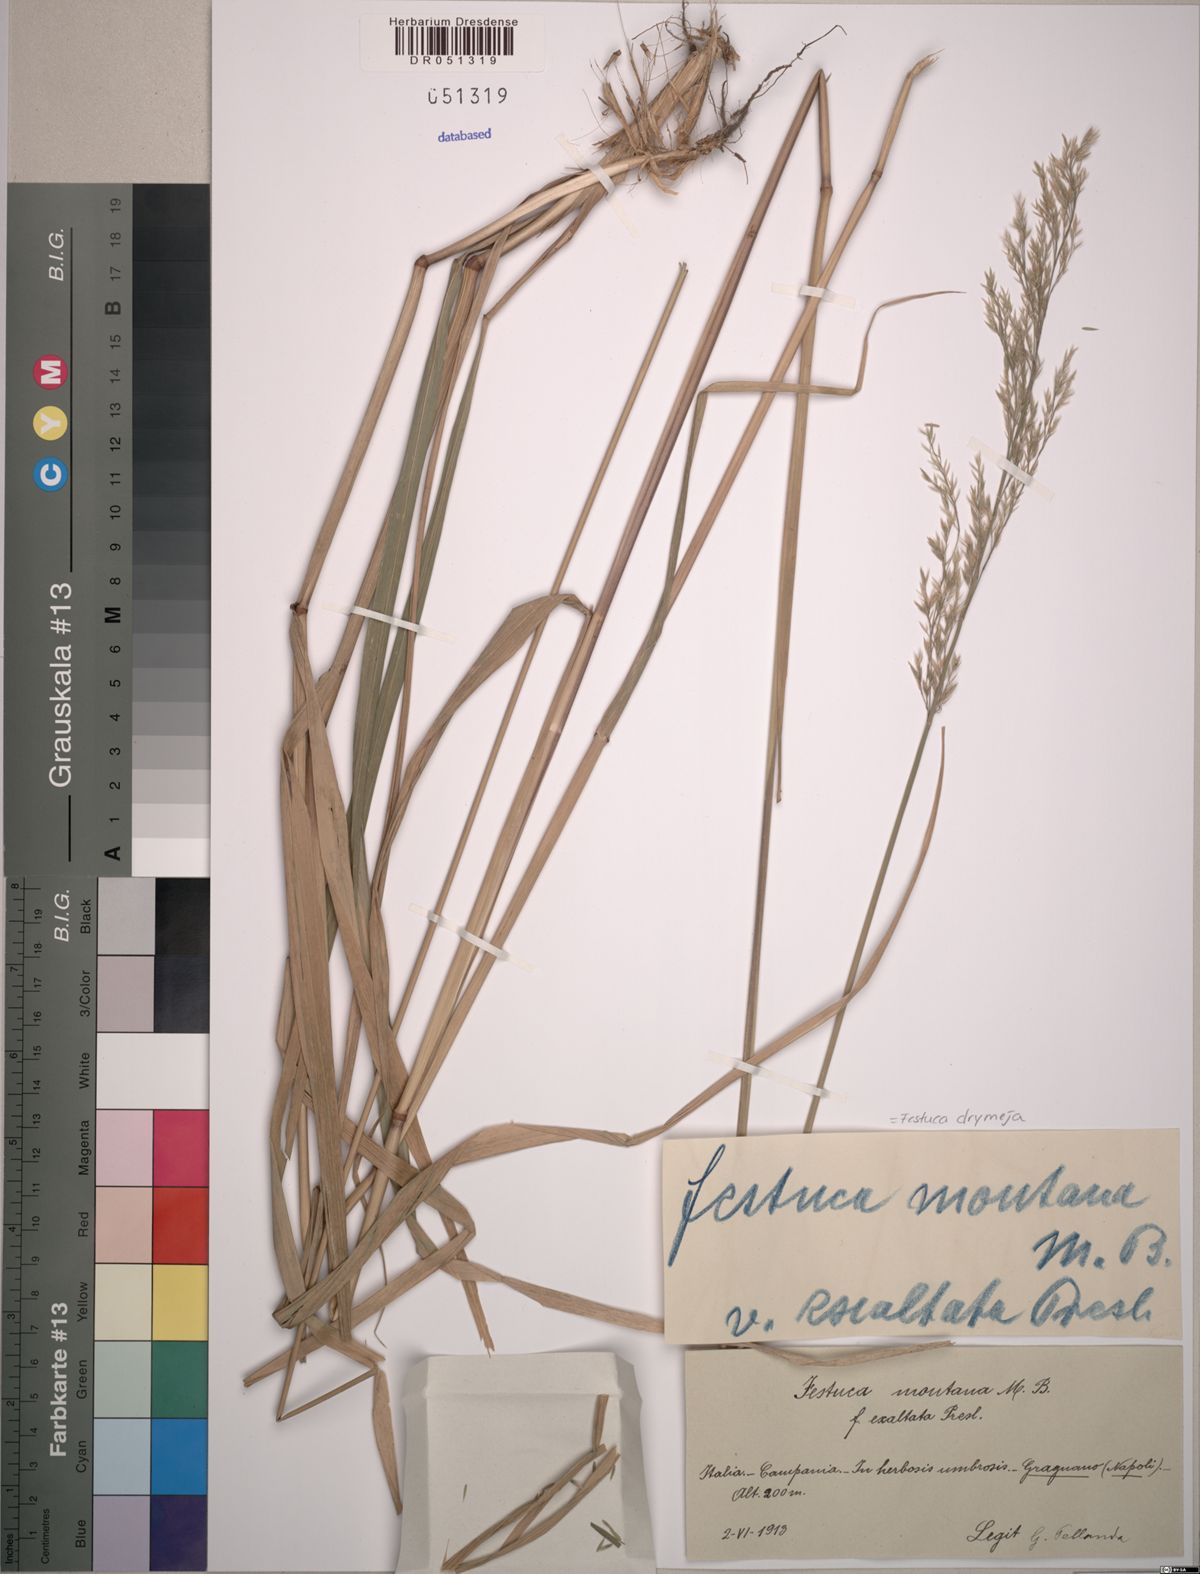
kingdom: Plantae
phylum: Tracheophyta
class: Liliopsida
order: Poales
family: Poaceae
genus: Festuca
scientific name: Festuca drymeja
